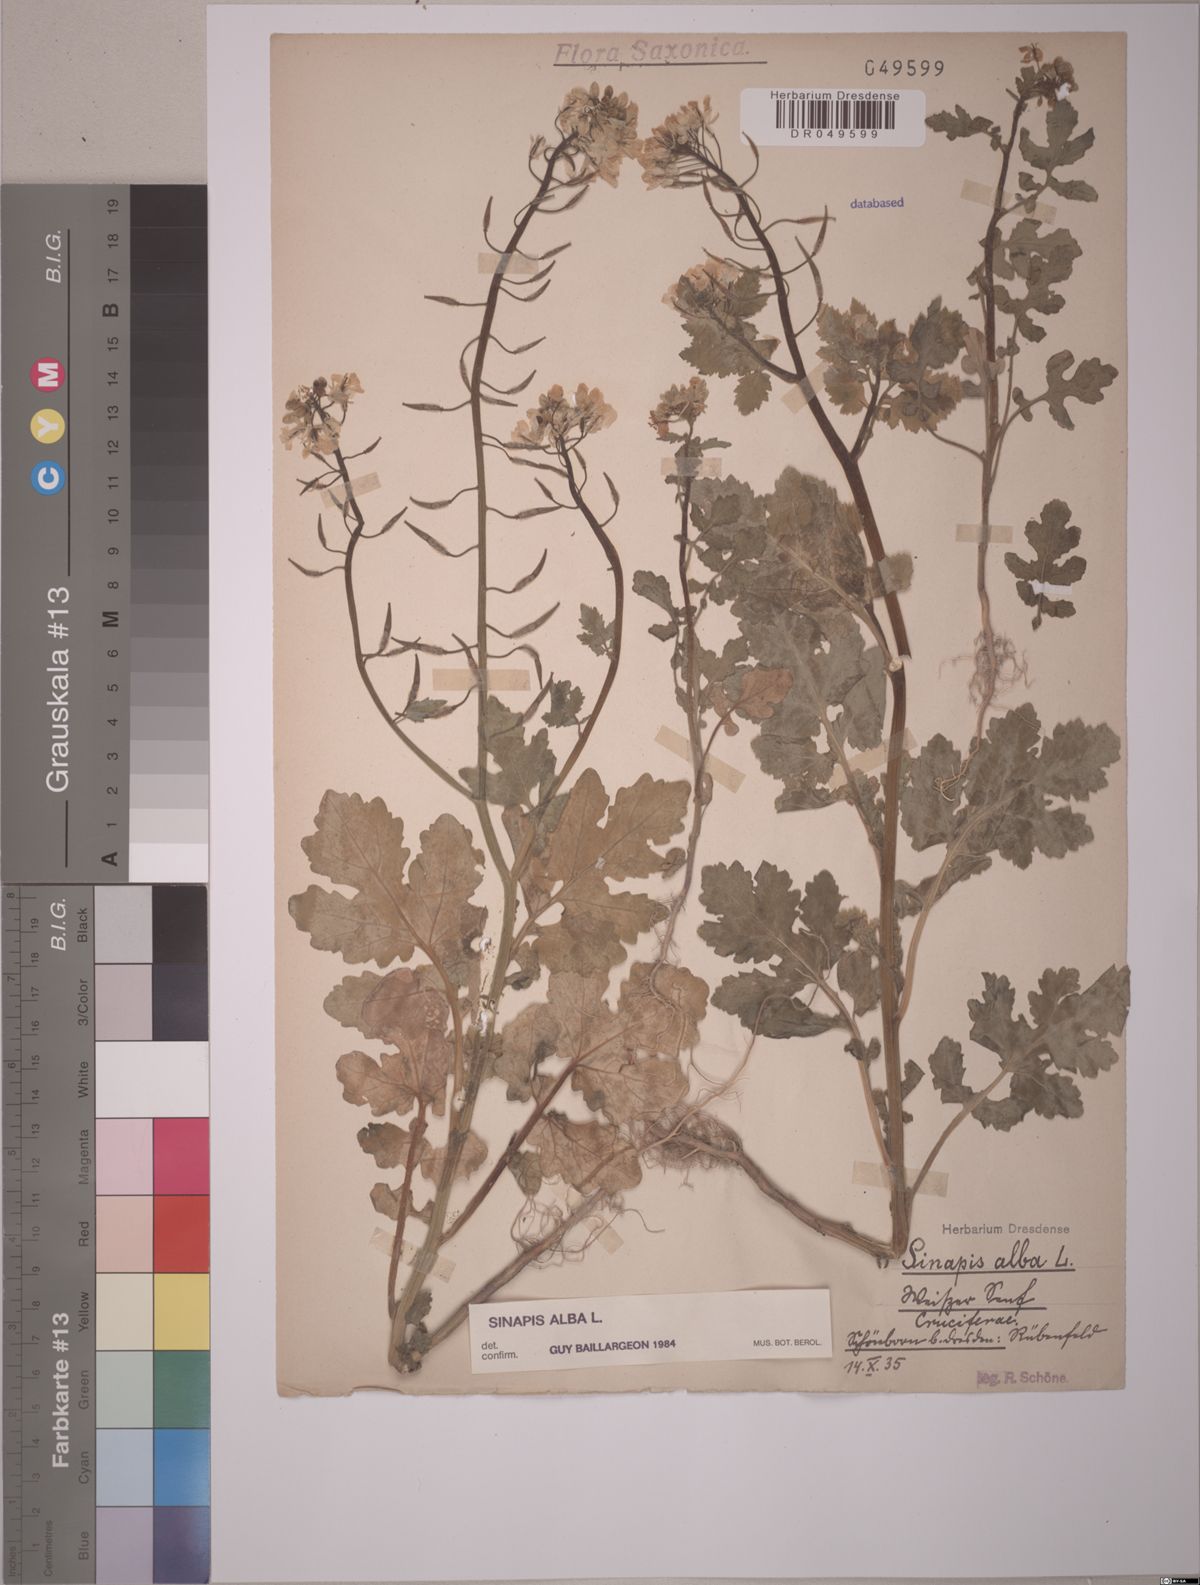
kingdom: Plantae
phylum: Tracheophyta
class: Magnoliopsida
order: Brassicales
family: Brassicaceae
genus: Sinapis
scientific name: Sinapis alba
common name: White mustard
